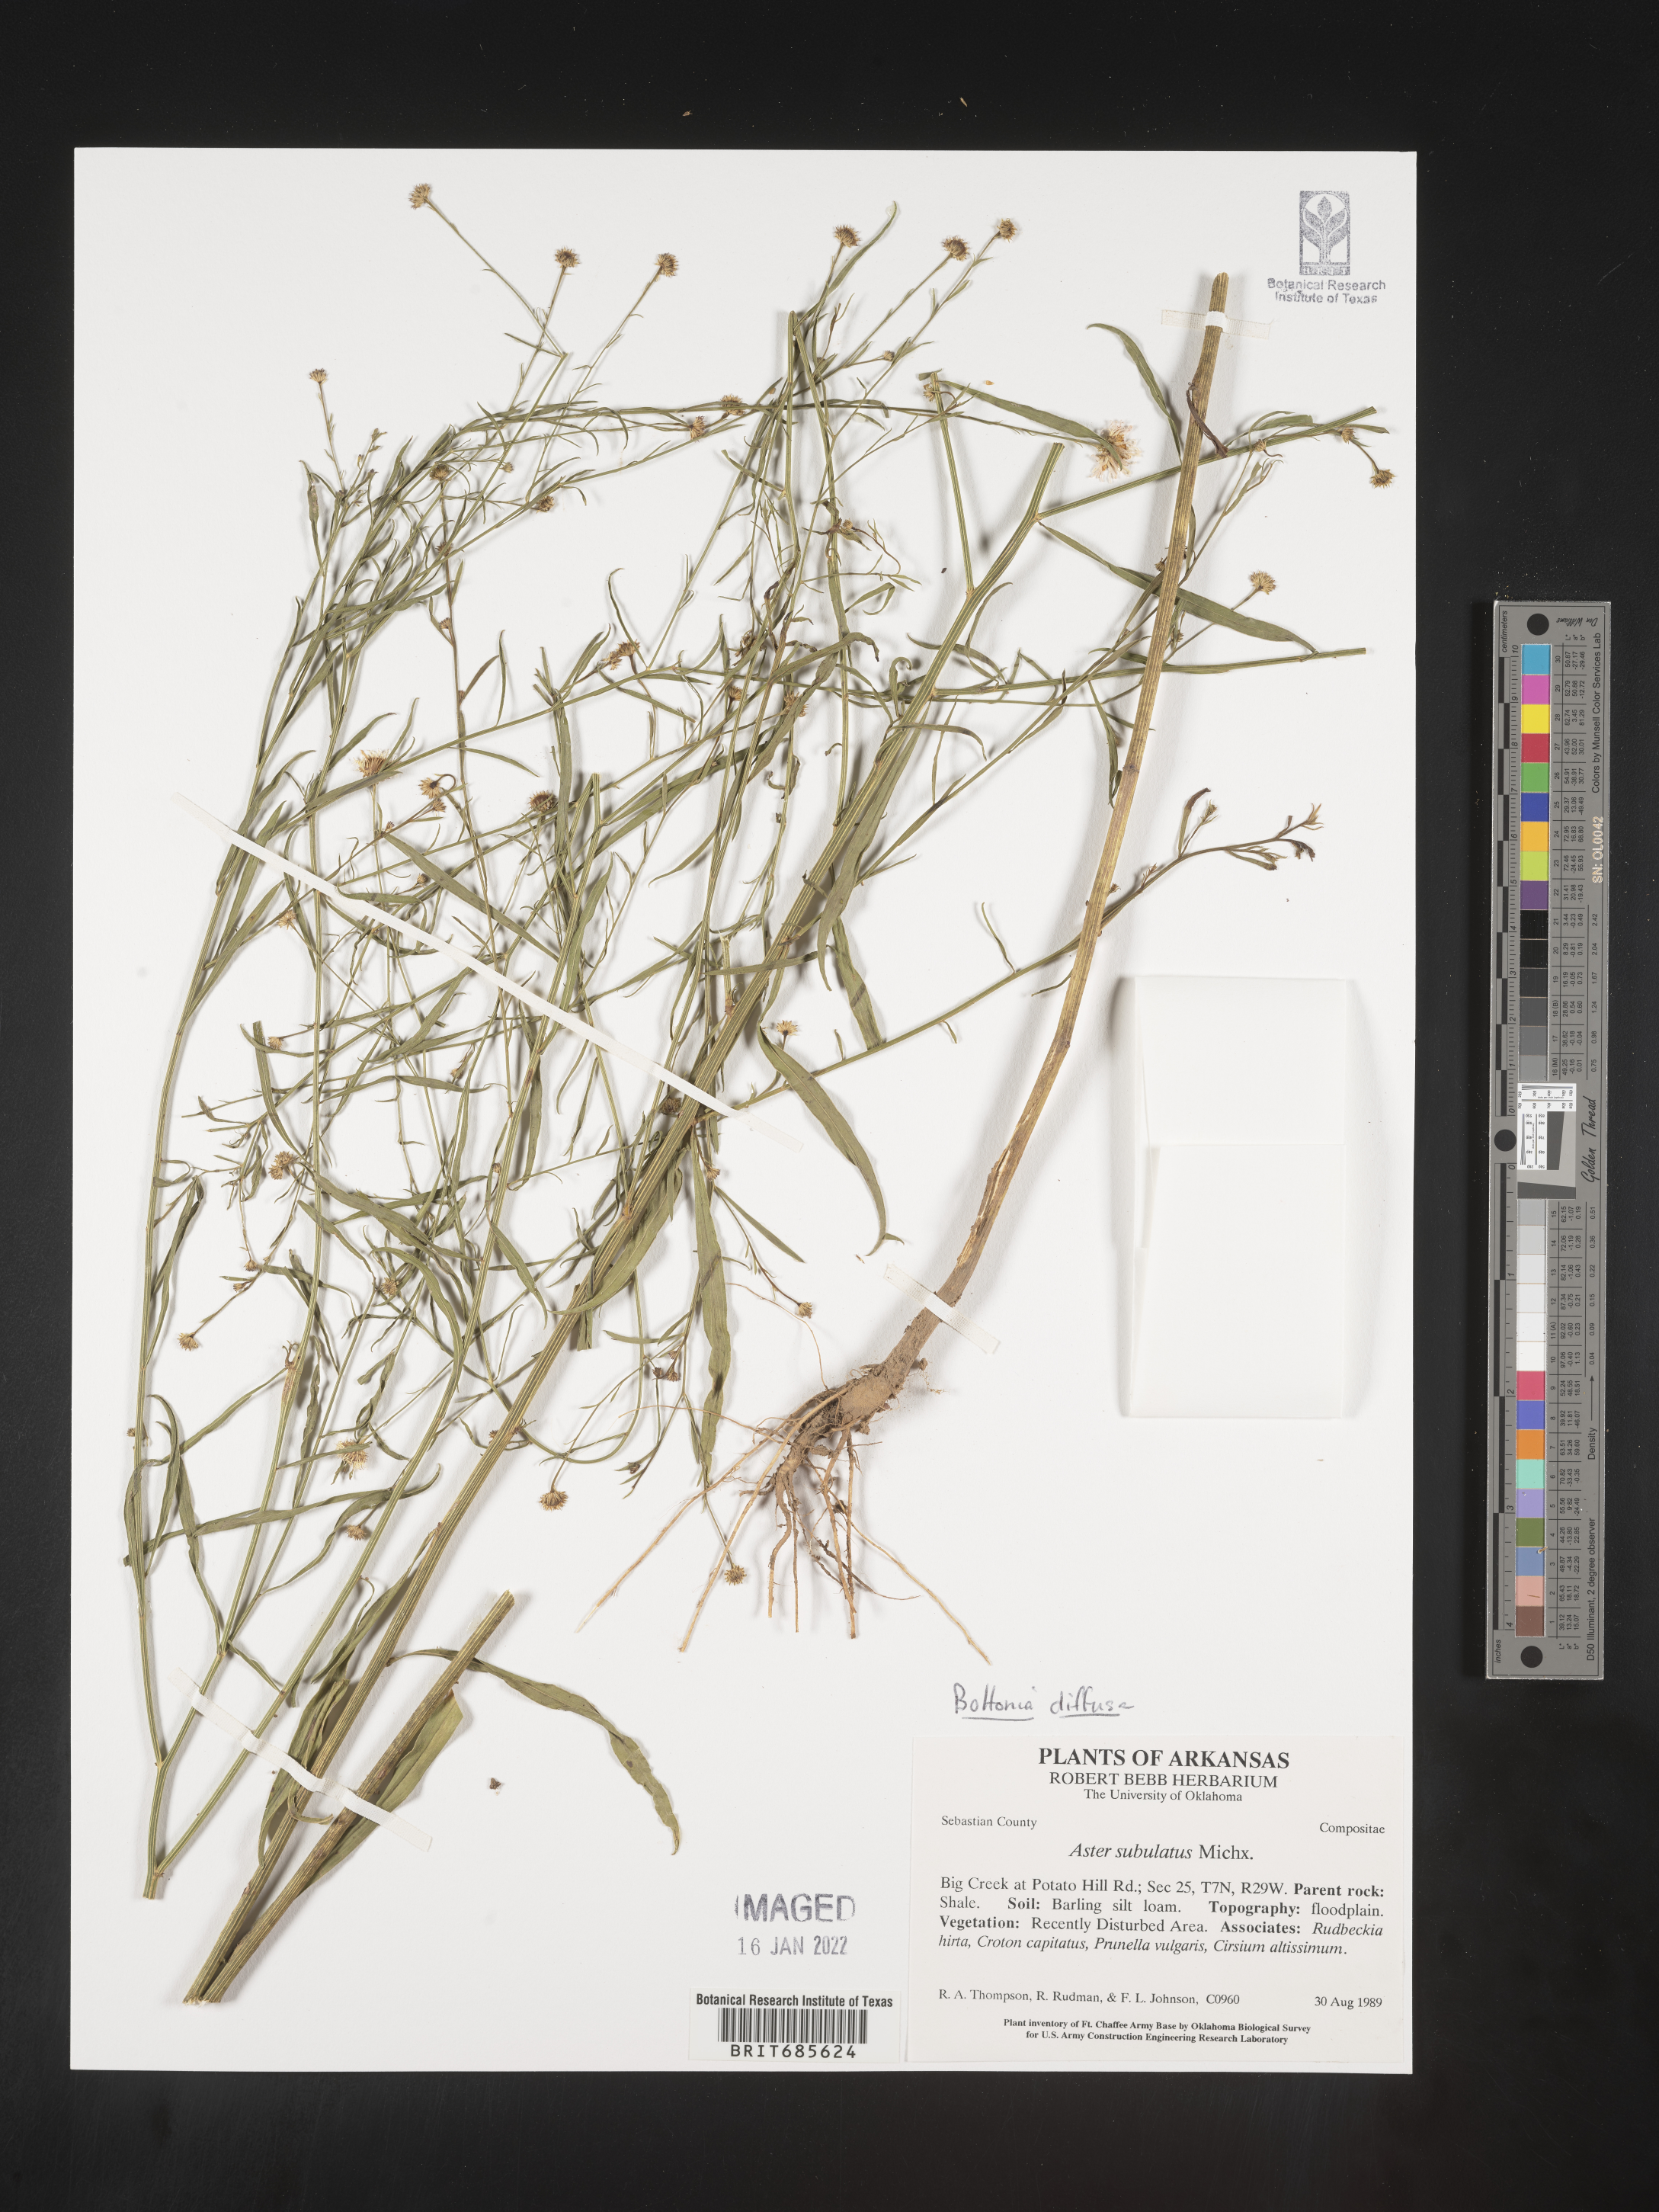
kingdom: Plantae
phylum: Tracheophyta
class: Magnoliopsida
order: Asterales
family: Asteraceae
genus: Boltonia
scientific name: Boltonia diffusa
